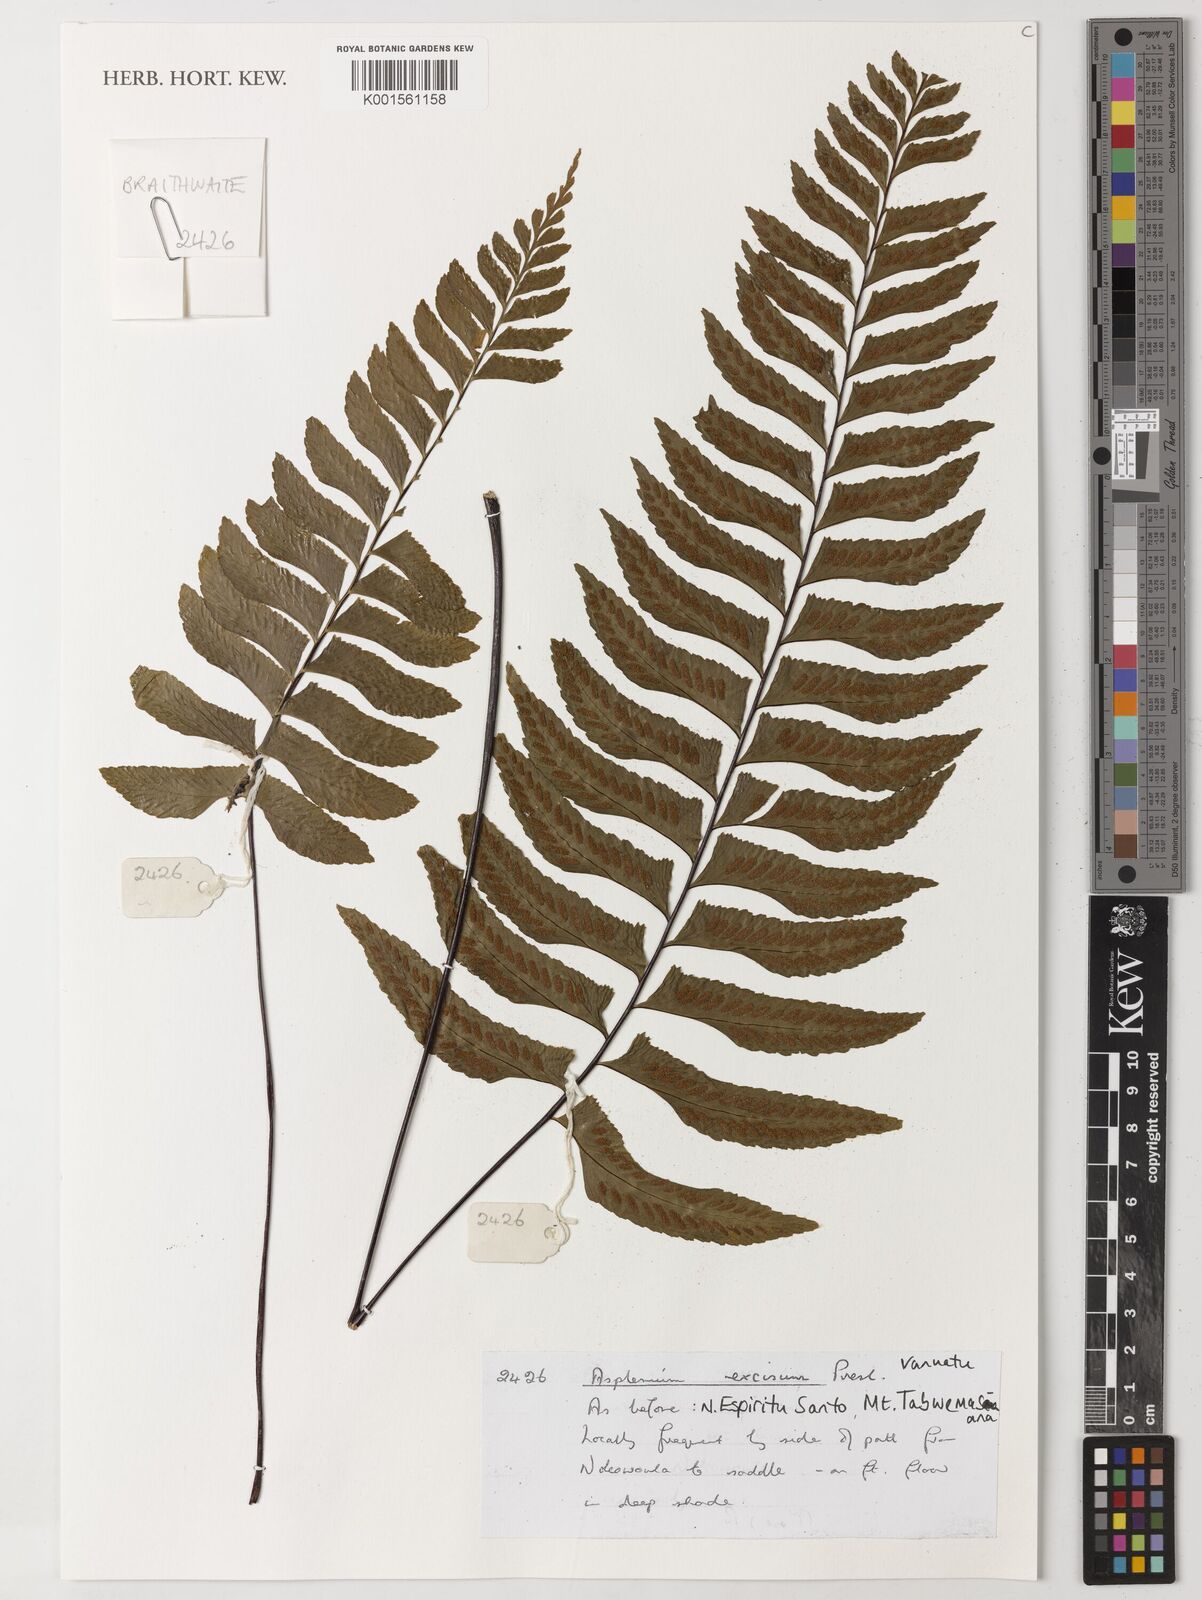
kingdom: Plantae
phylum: Tracheophyta
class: Polypodiopsida
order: Polypodiales
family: Aspleniaceae
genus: Hymenasplenium
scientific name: Hymenasplenium excisum
